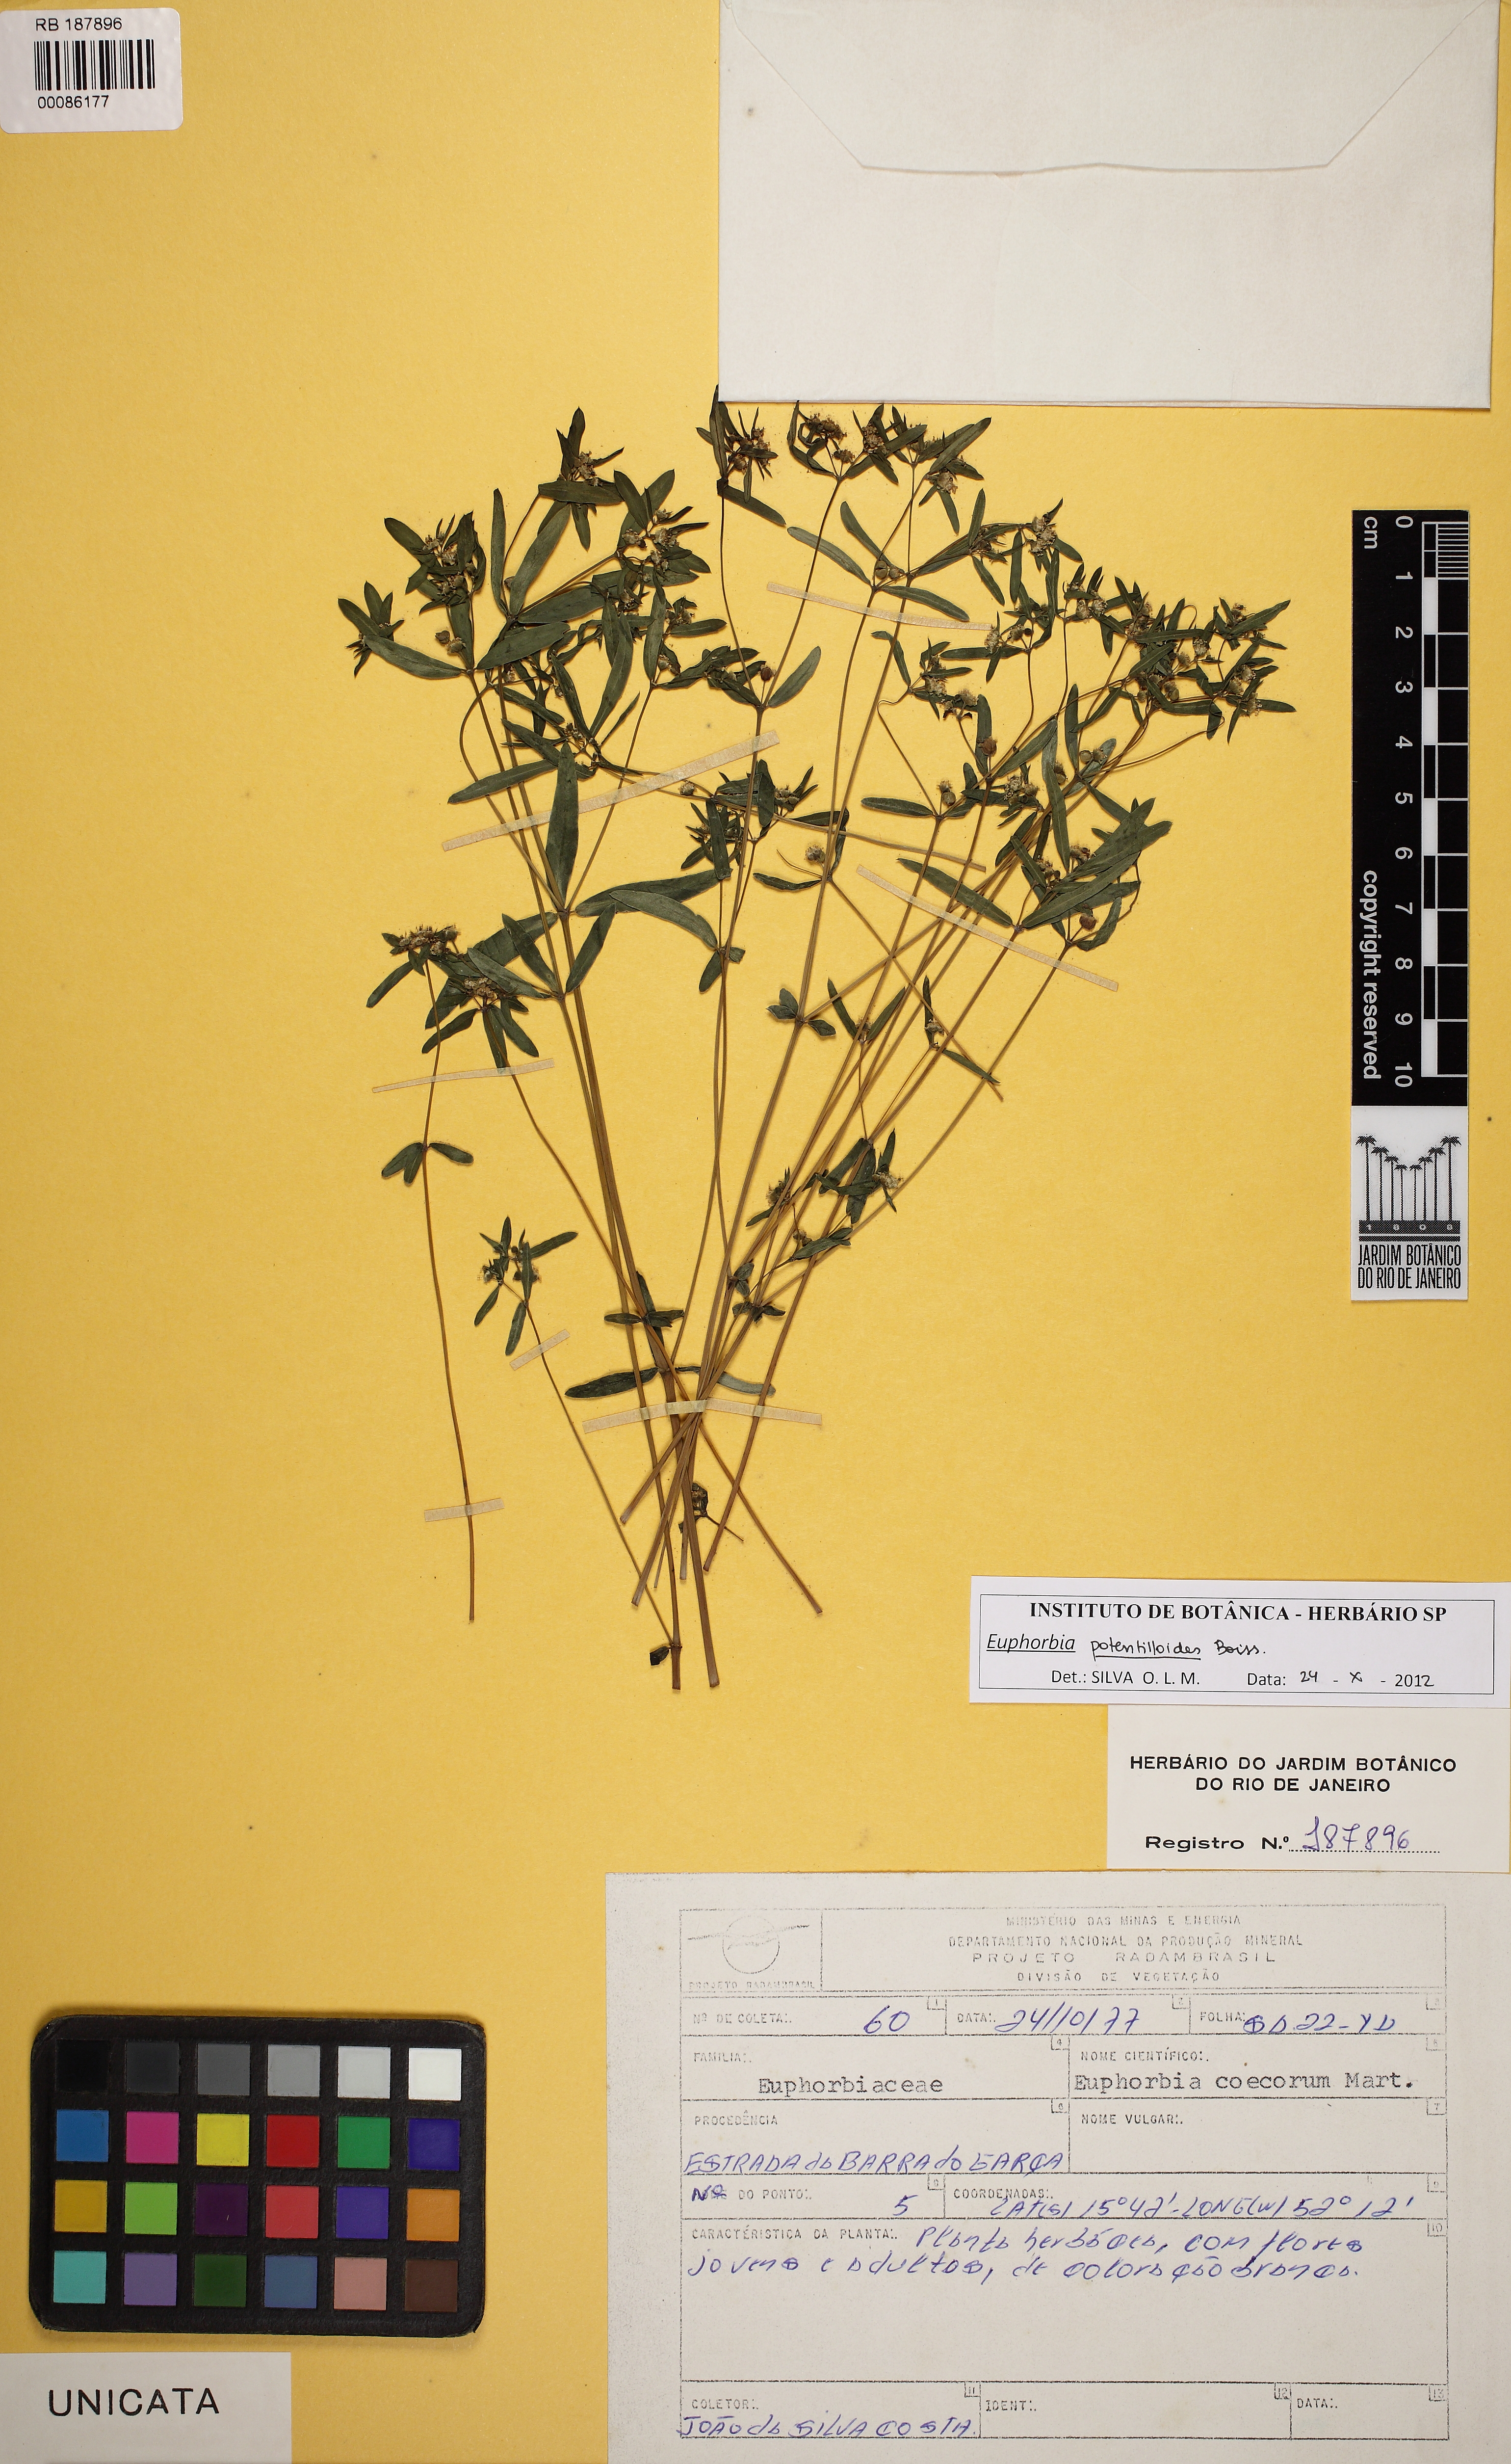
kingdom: Plantae
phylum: Tracheophyta
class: Magnoliopsida
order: Malpighiales
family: Euphorbiaceae
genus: Euphorbia
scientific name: Euphorbia potentilloides
